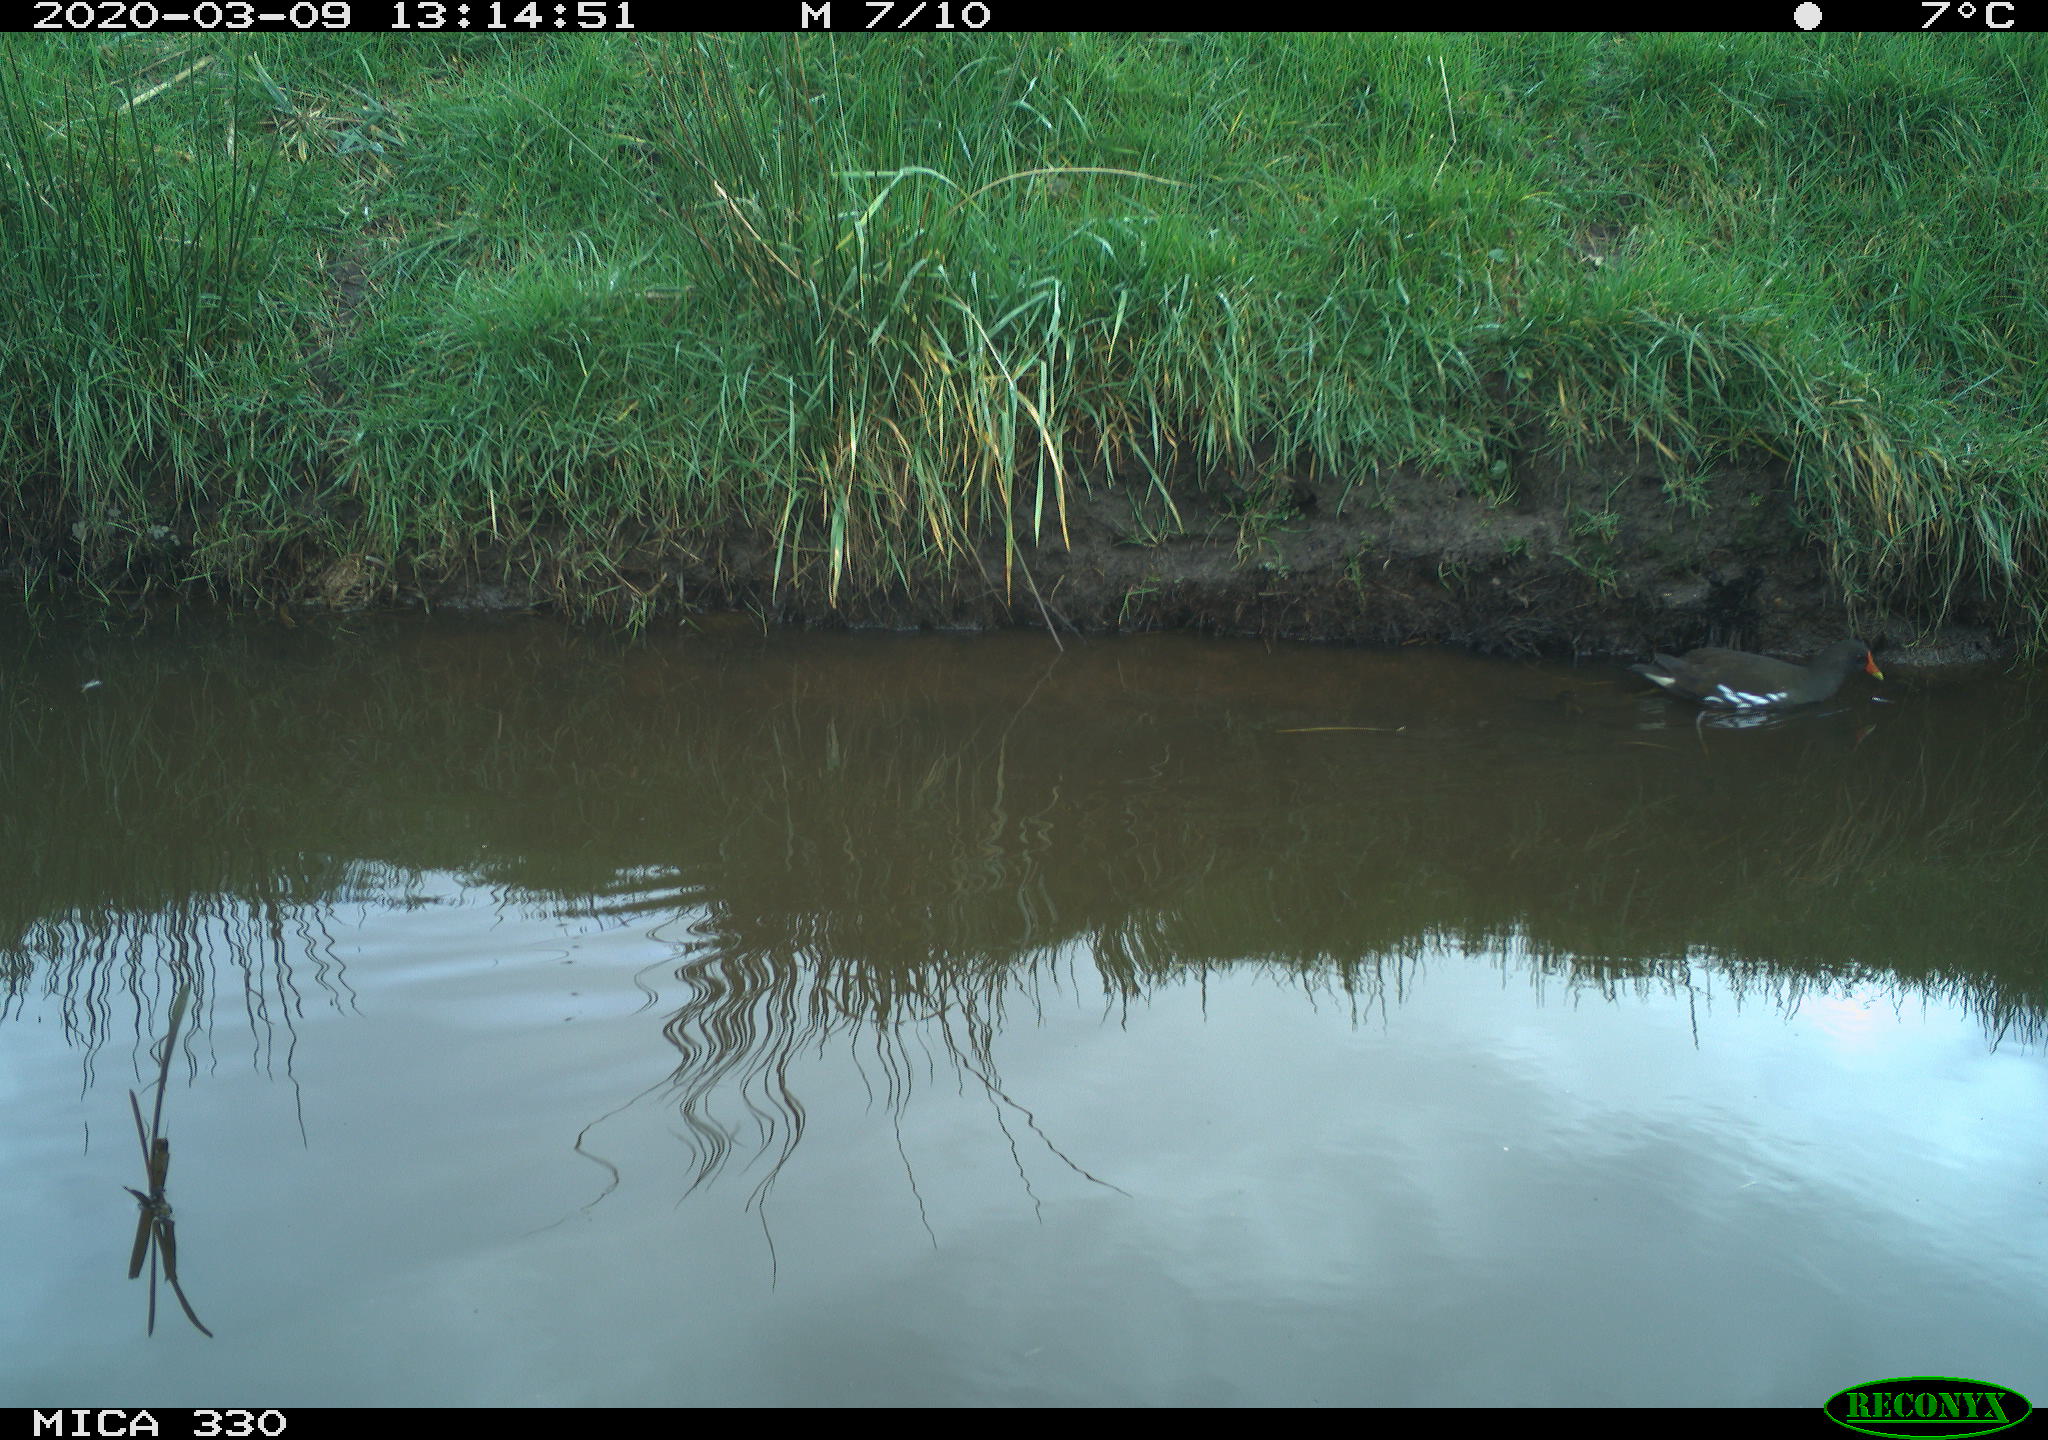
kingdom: Animalia
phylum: Chordata
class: Aves
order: Gruiformes
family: Rallidae
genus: Gallinula
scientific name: Gallinula chloropus
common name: Common moorhen
